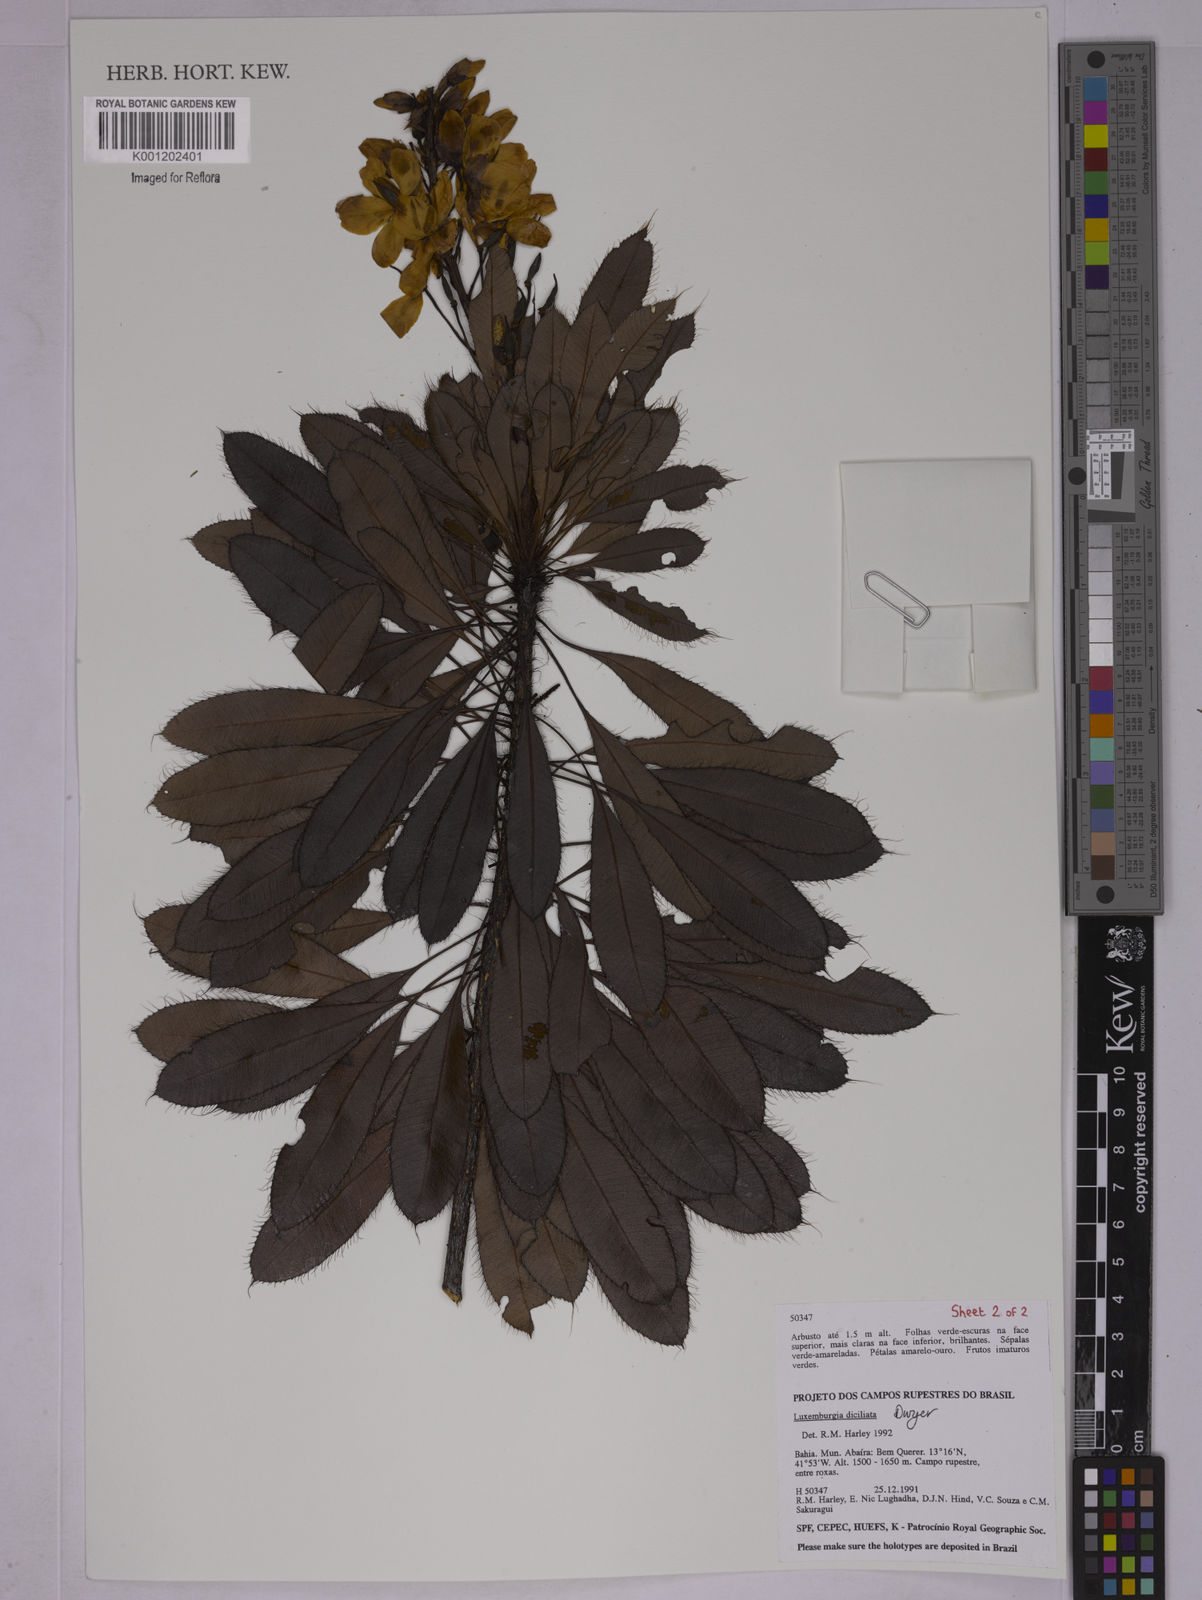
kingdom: Plantae
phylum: Tracheophyta
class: Magnoliopsida
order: Malpighiales
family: Ochnaceae
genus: Luxemburgia
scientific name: Luxemburgia diciliata
